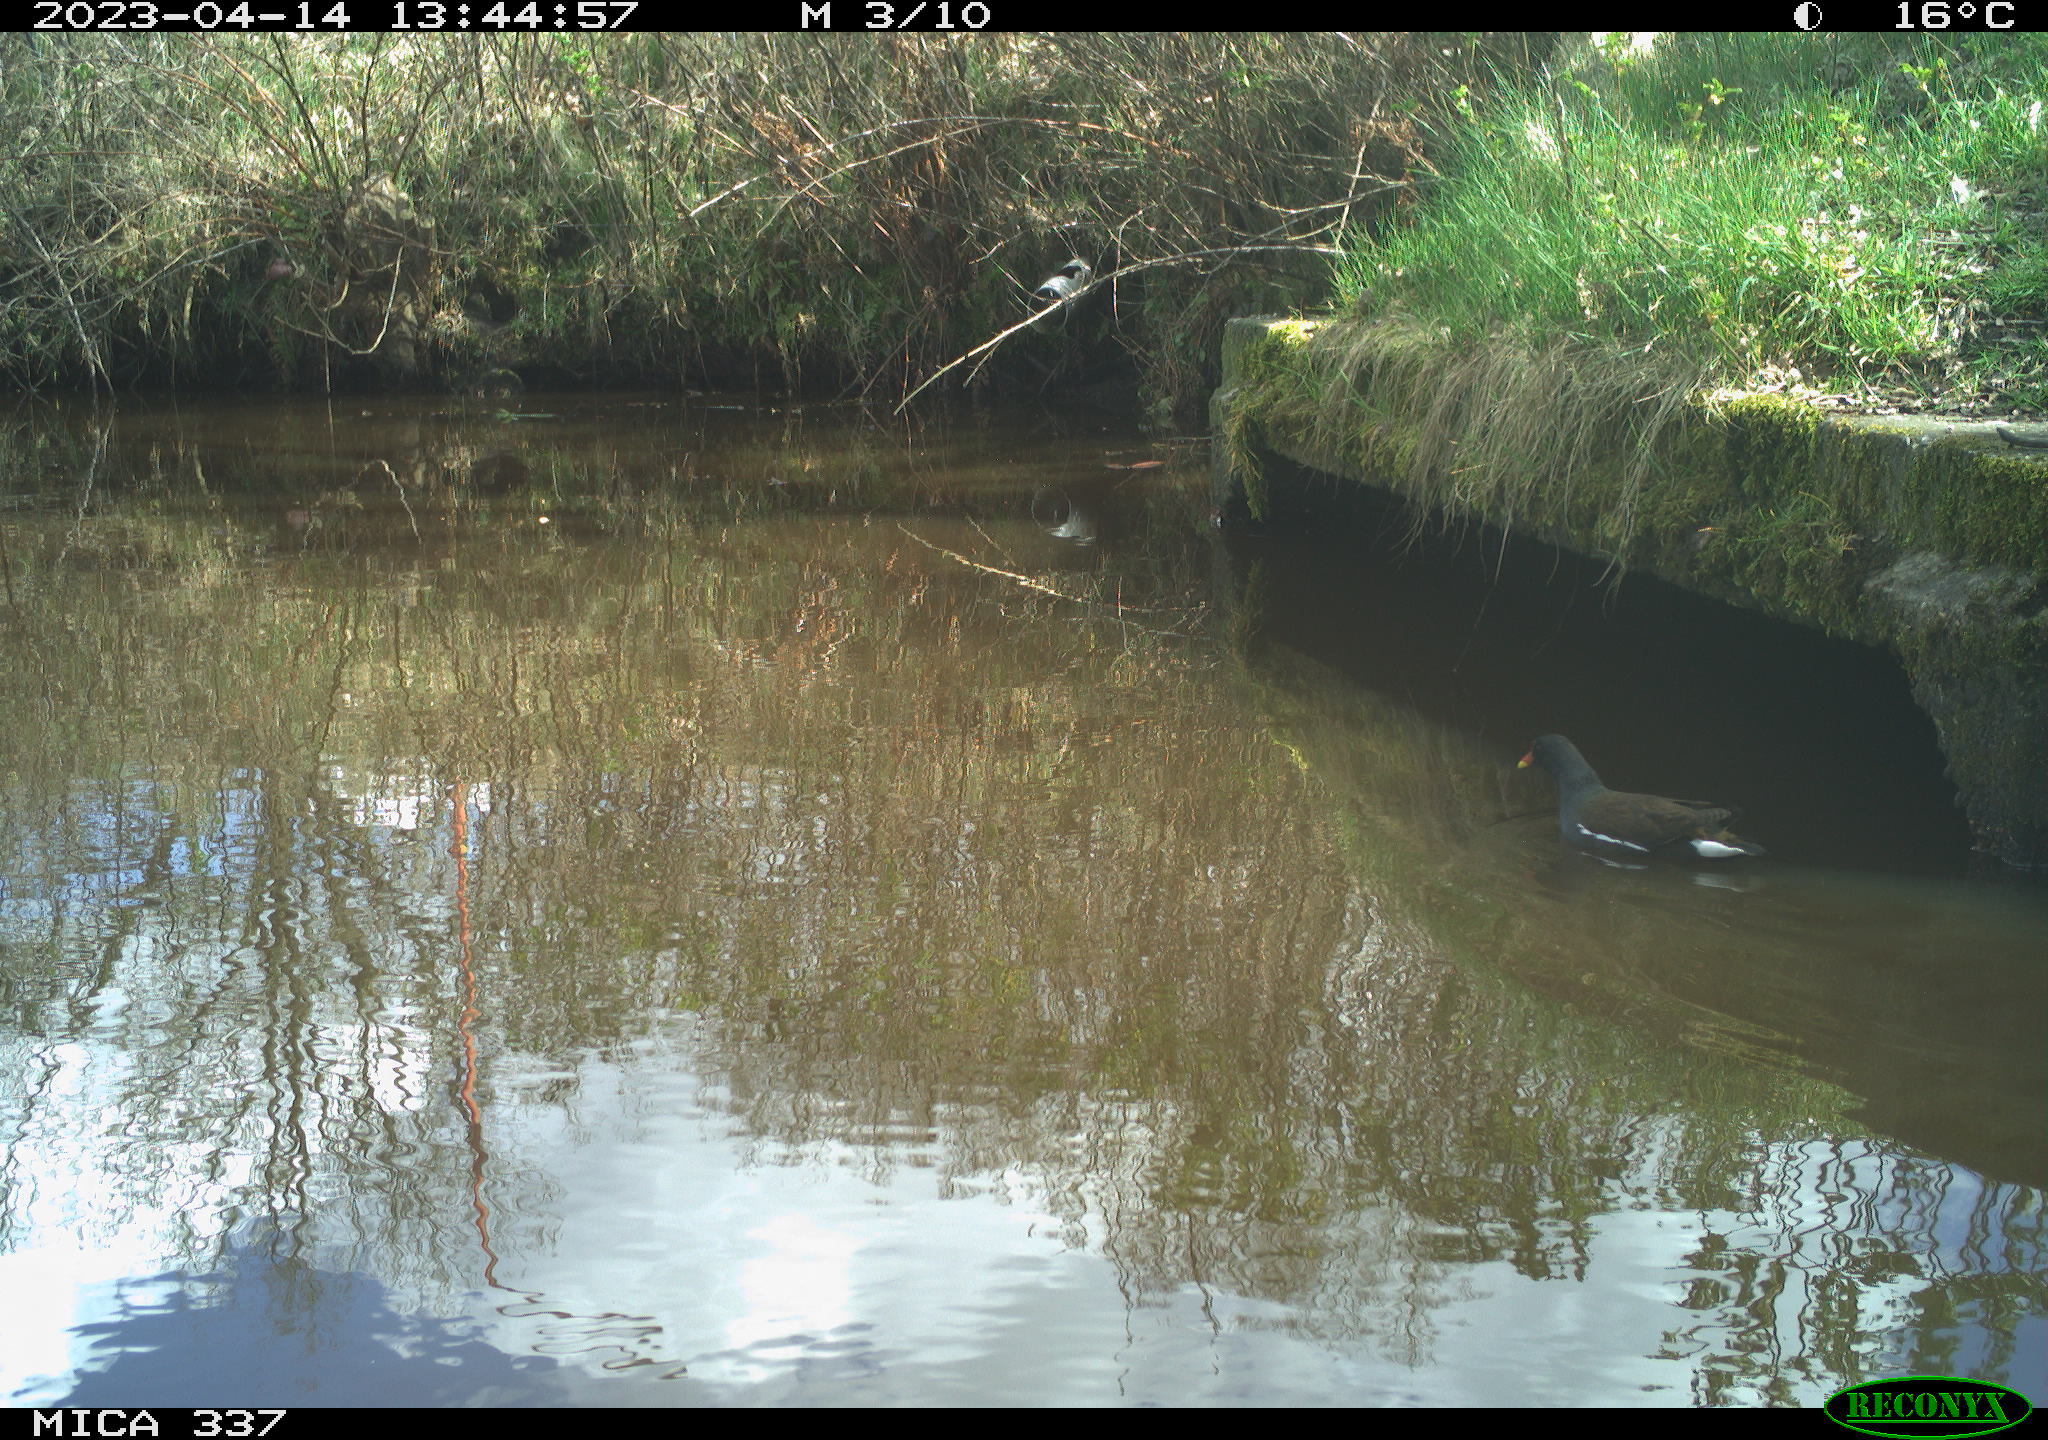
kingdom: Animalia
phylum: Chordata
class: Aves
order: Gruiformes
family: Rallidae
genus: Gallinula
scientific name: Gallinula chloropus
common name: Common moorhen
